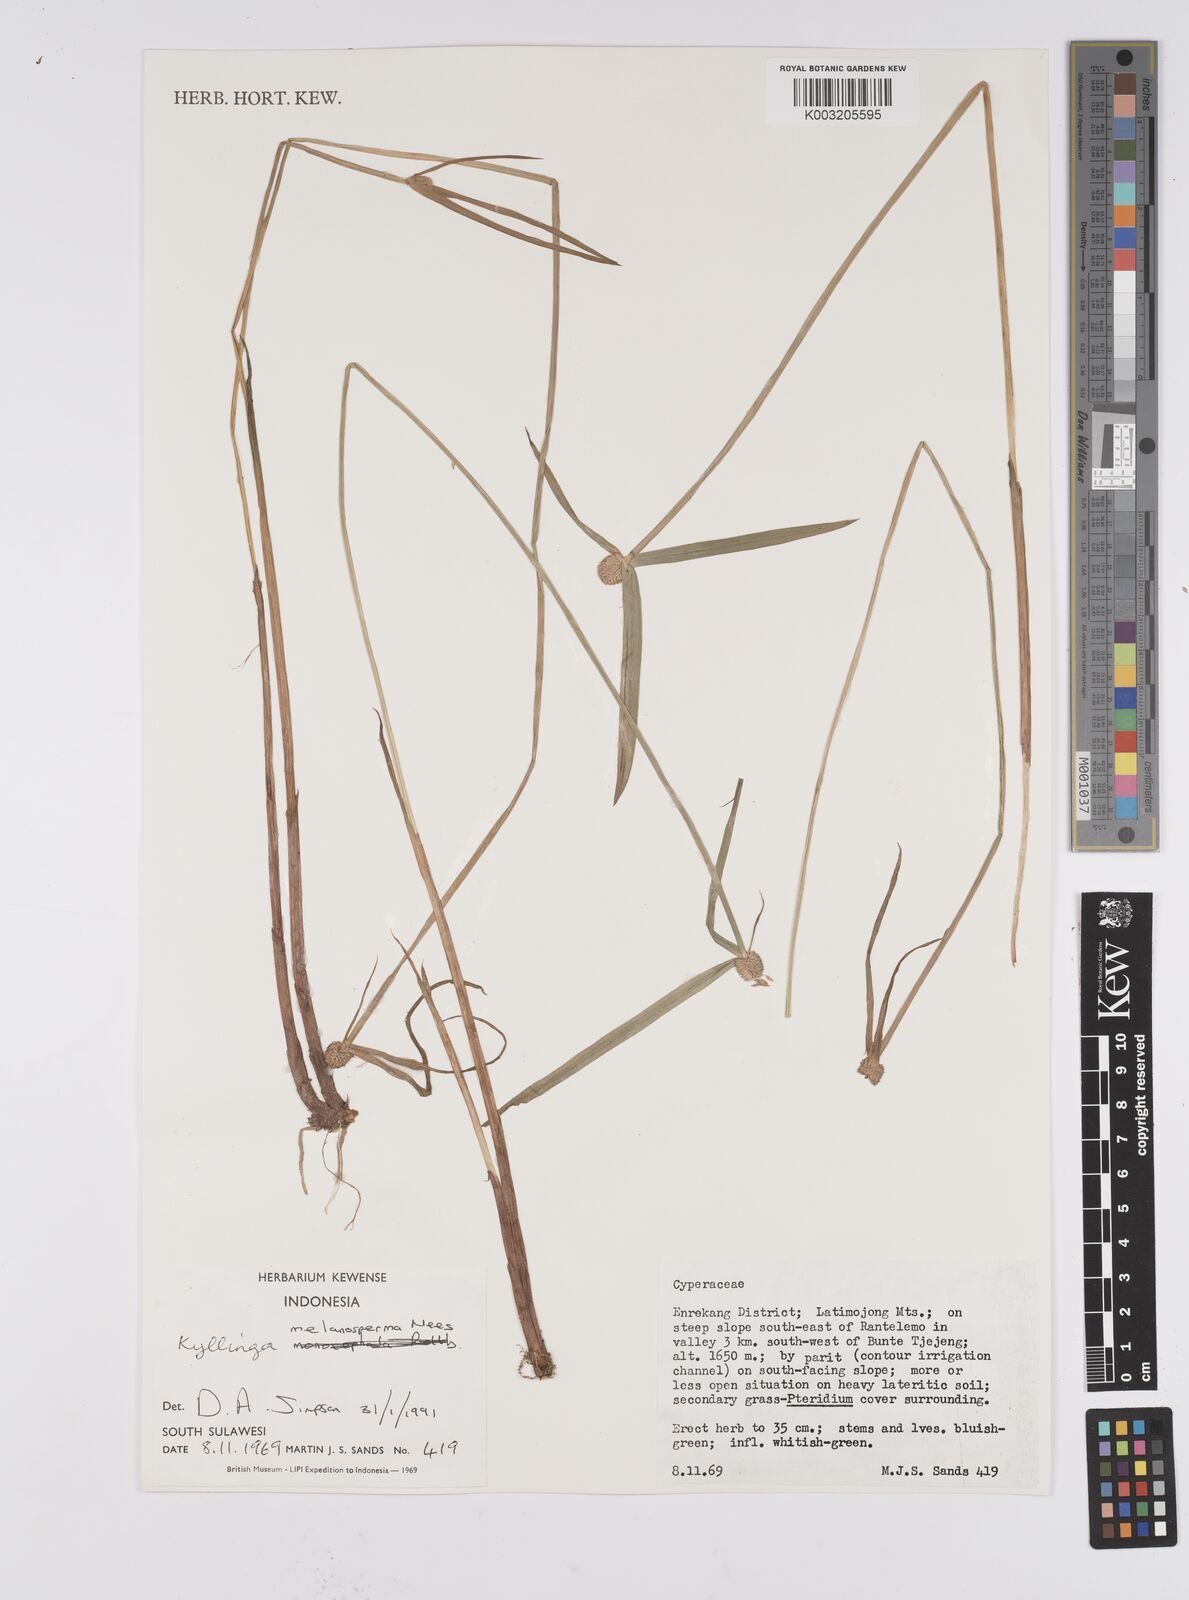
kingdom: Plantae
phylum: Tracheophyta
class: Liliopsida
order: Poales
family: Cyperaceae
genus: Cyperus
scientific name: Cyperus melanospermus
